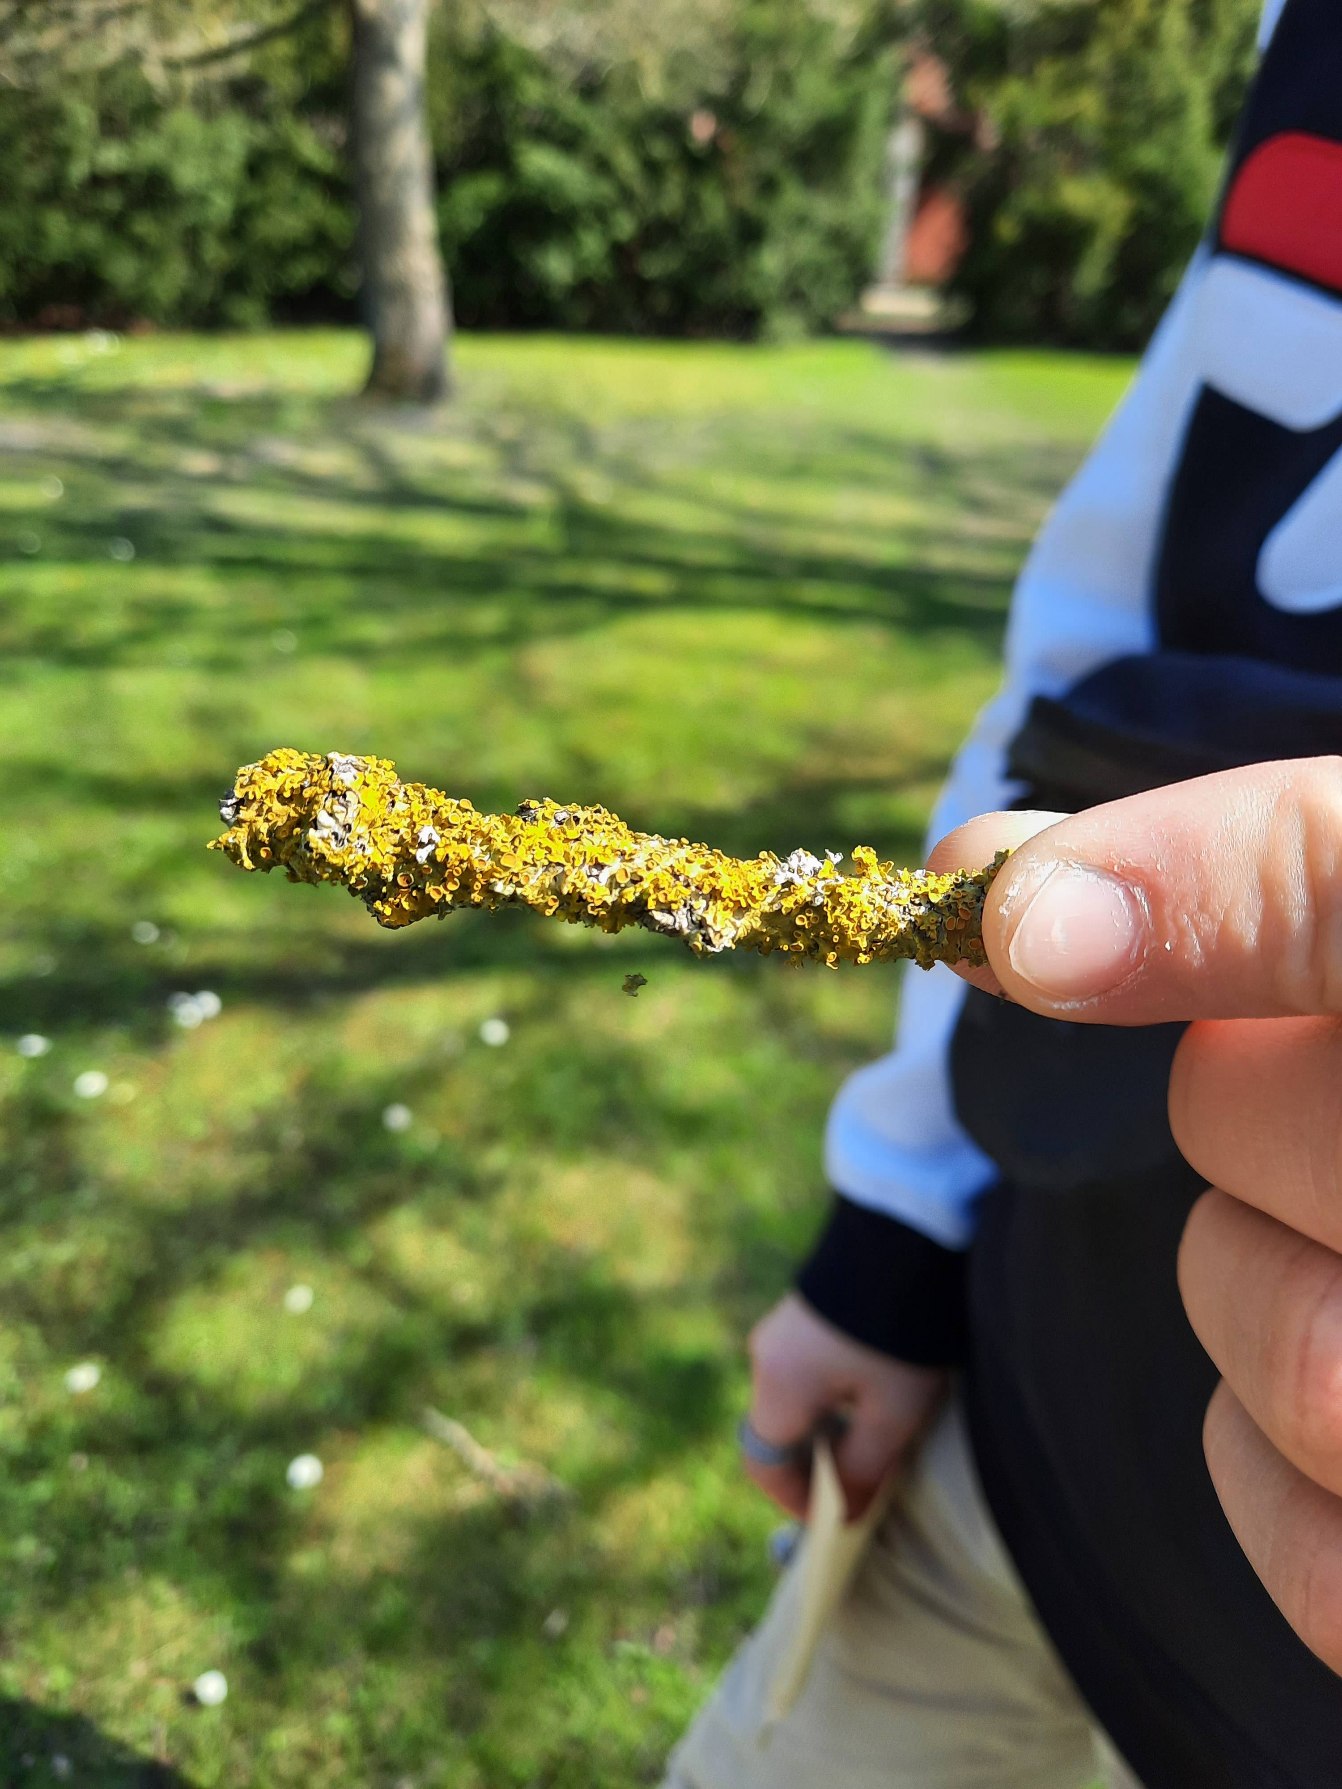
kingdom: Fungi
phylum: Ascomycota
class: Lecanoromycetes
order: Teloschistales
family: Teloschistaceae
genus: Xanthoria
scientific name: Xanthoria parietina
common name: Almindelig væggelav
